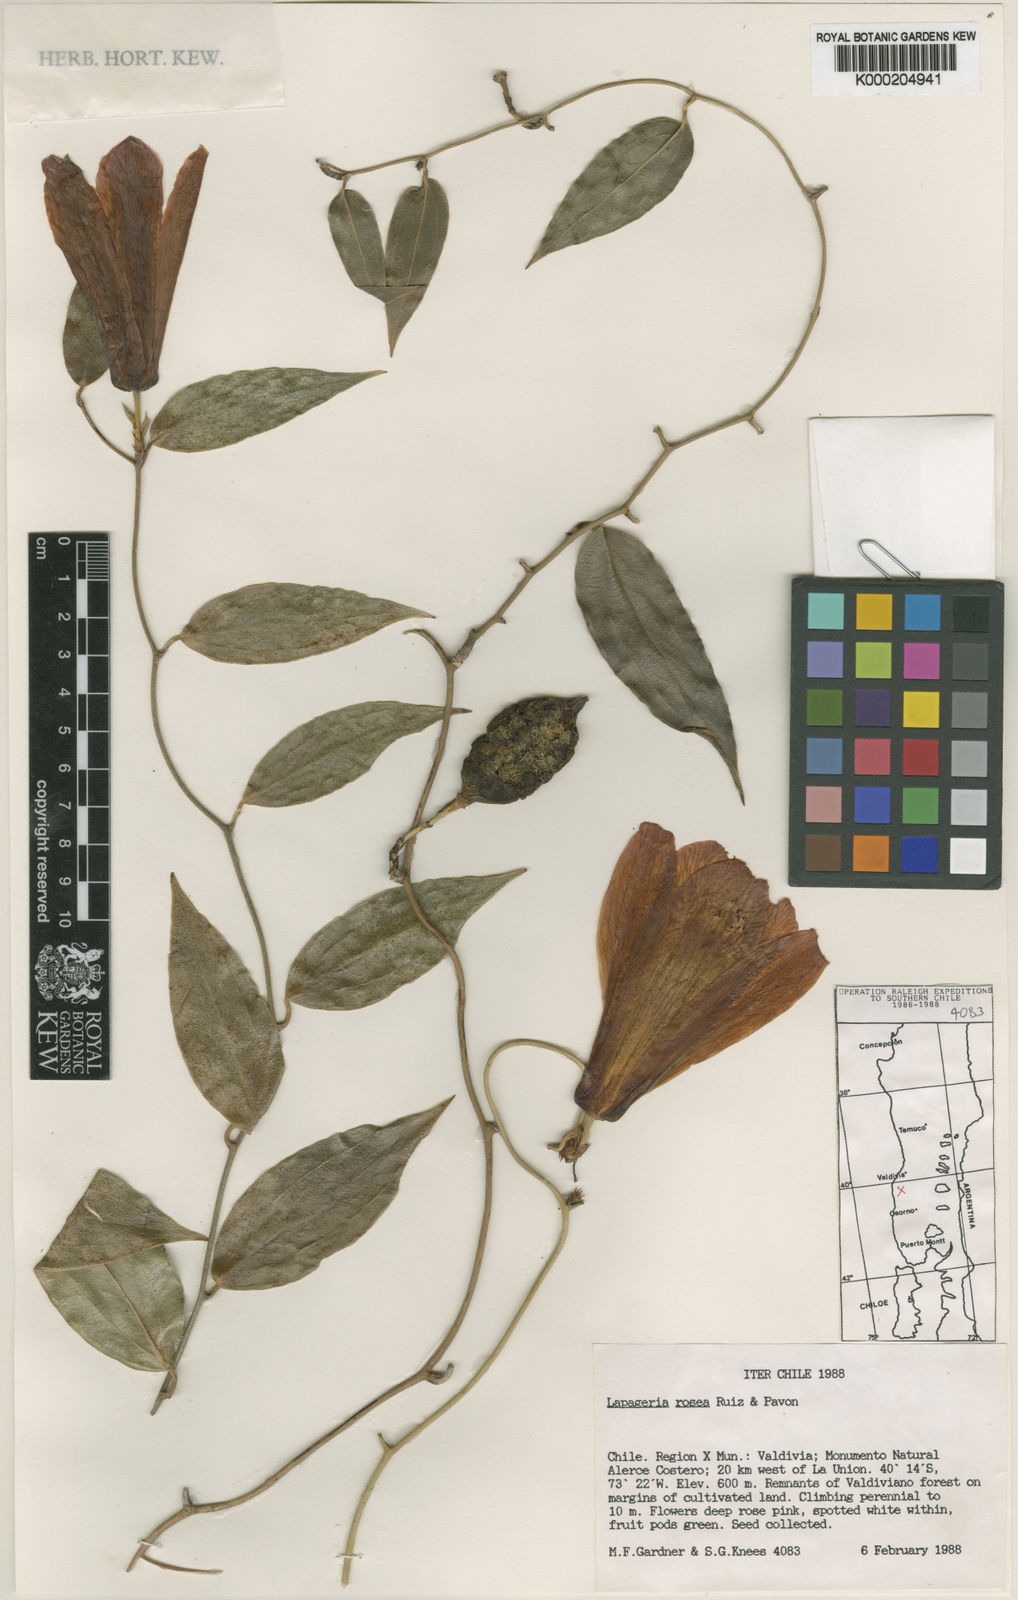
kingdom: Plantae
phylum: Tracheophyta
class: Liliopsida
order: Liliales
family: Philesiaceae
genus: Lapageria
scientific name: Lapageria rosea
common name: Chilean-bellflower
